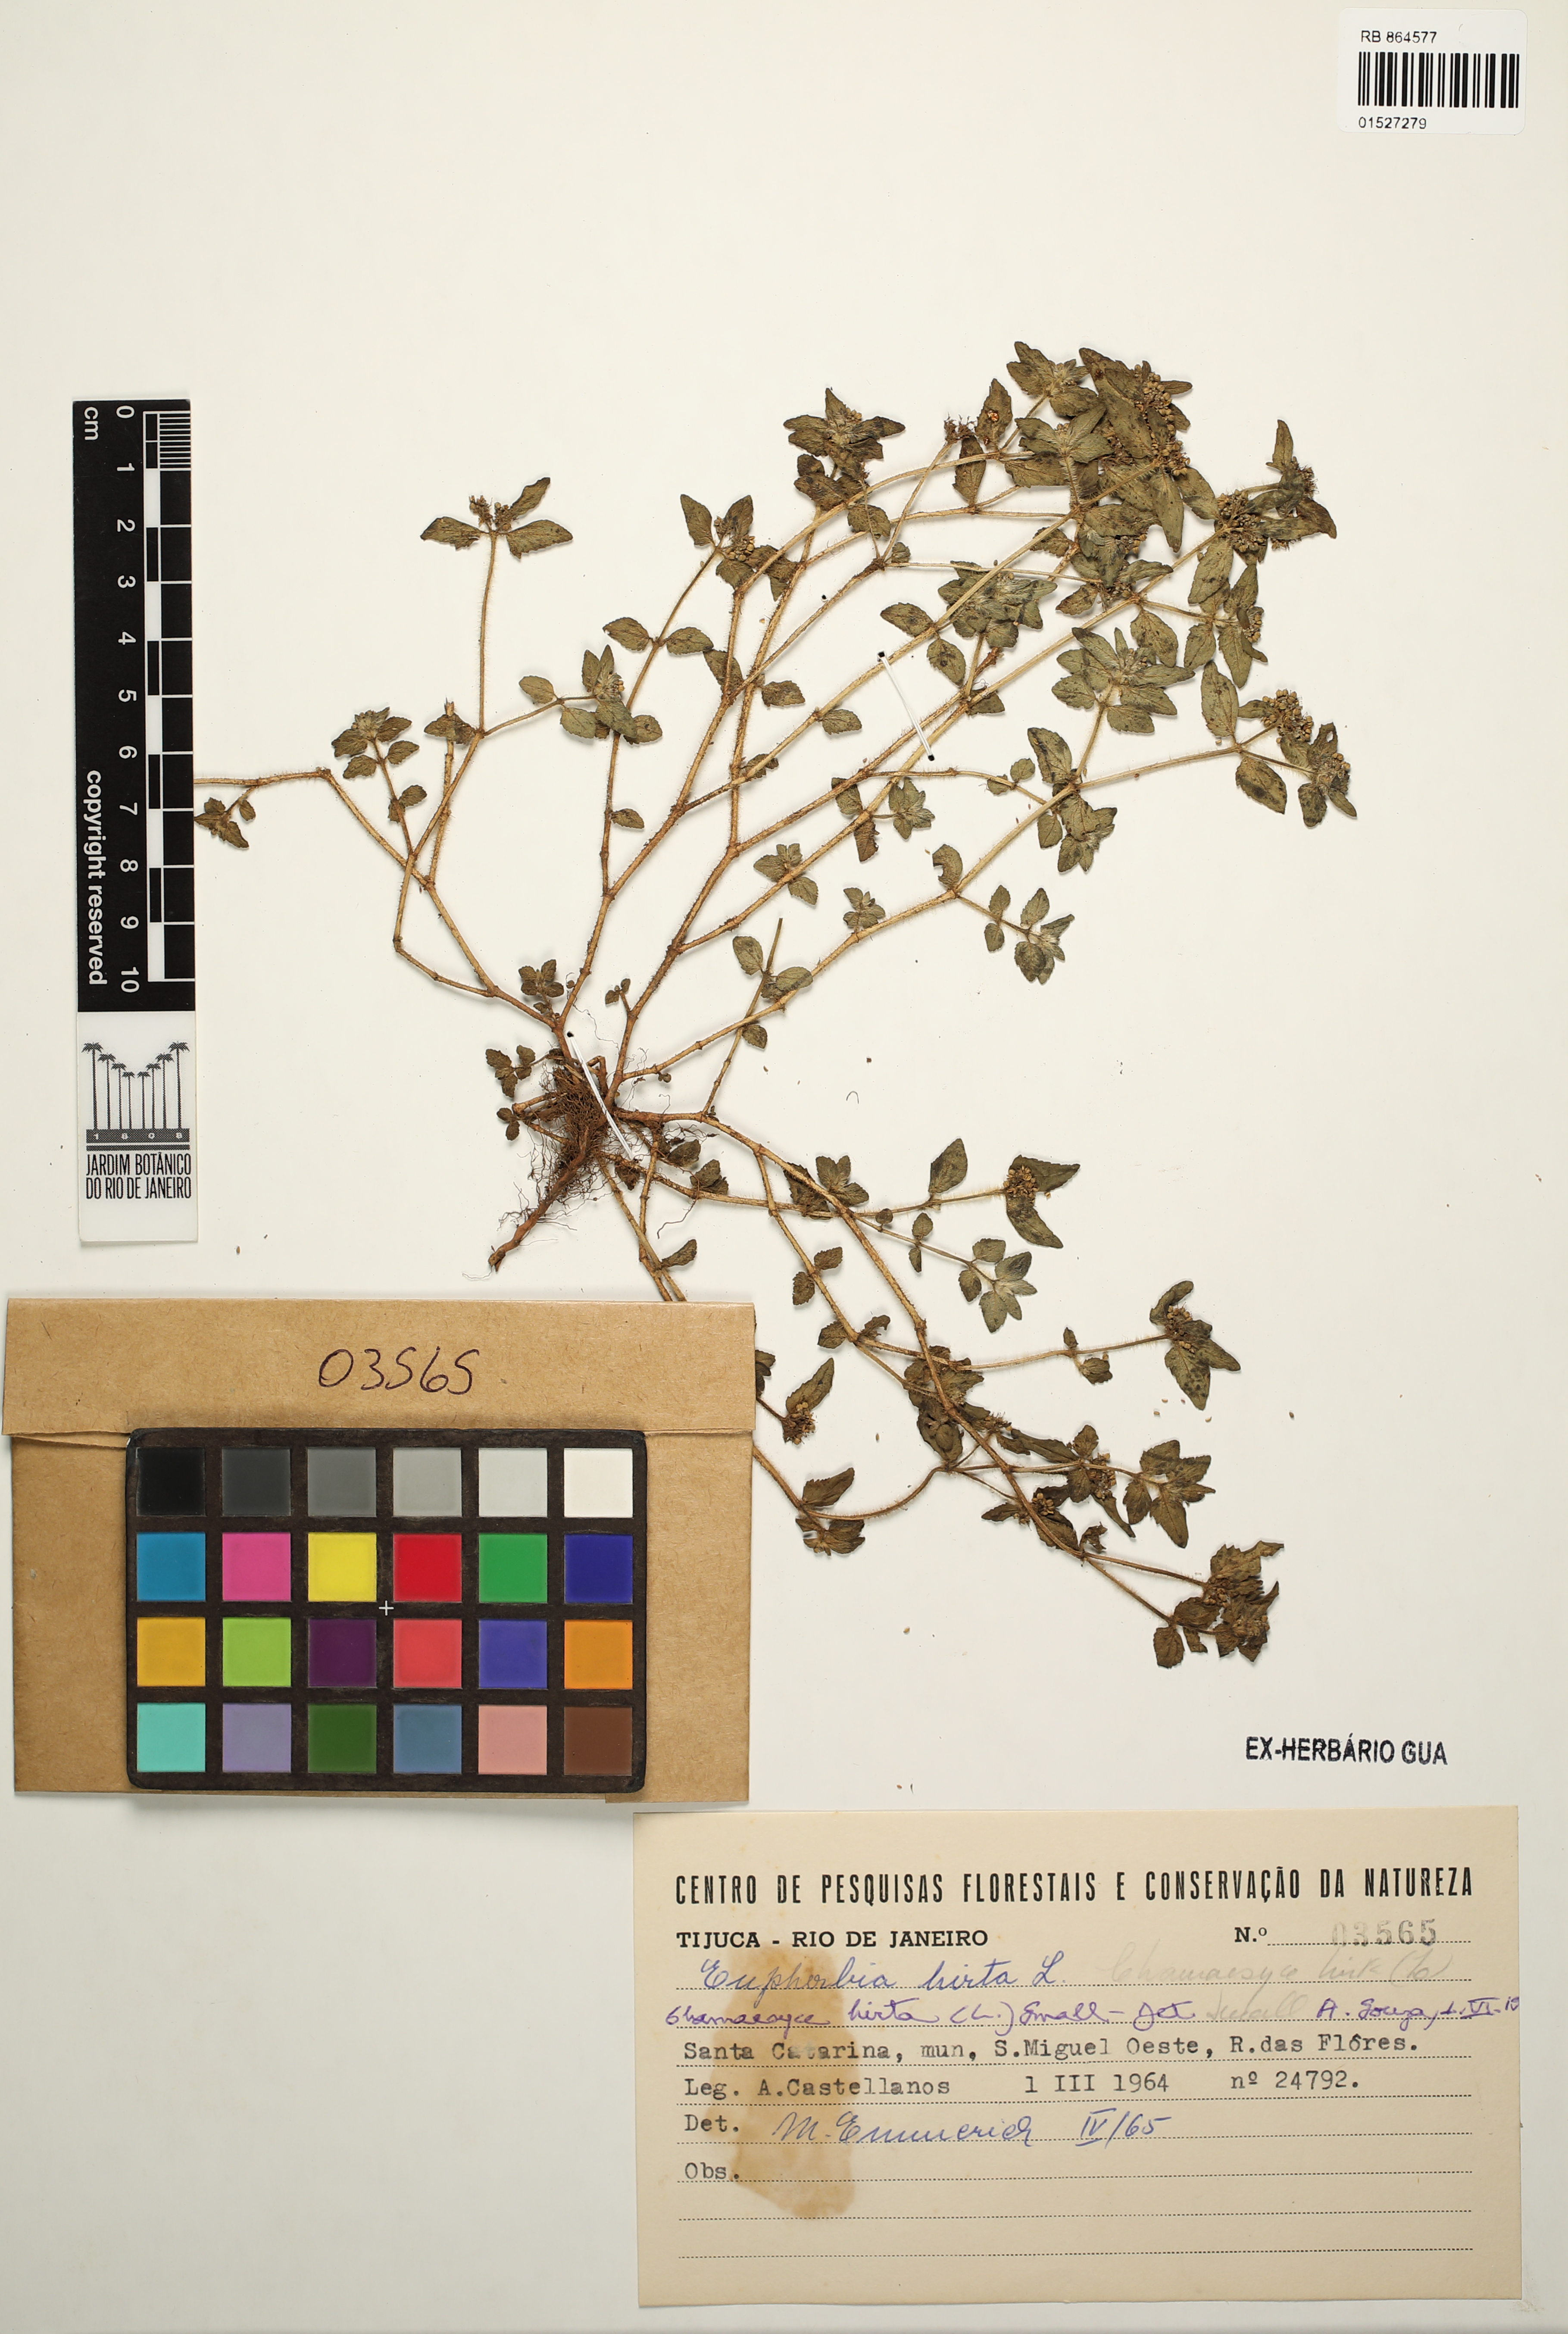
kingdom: Plantae
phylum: Tracheophyta
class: Magnoliopsida
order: Malpighiales
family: Euphorbiaceae
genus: Euphorbia
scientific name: Euphorbia hirta
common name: Pillpod sandmat
